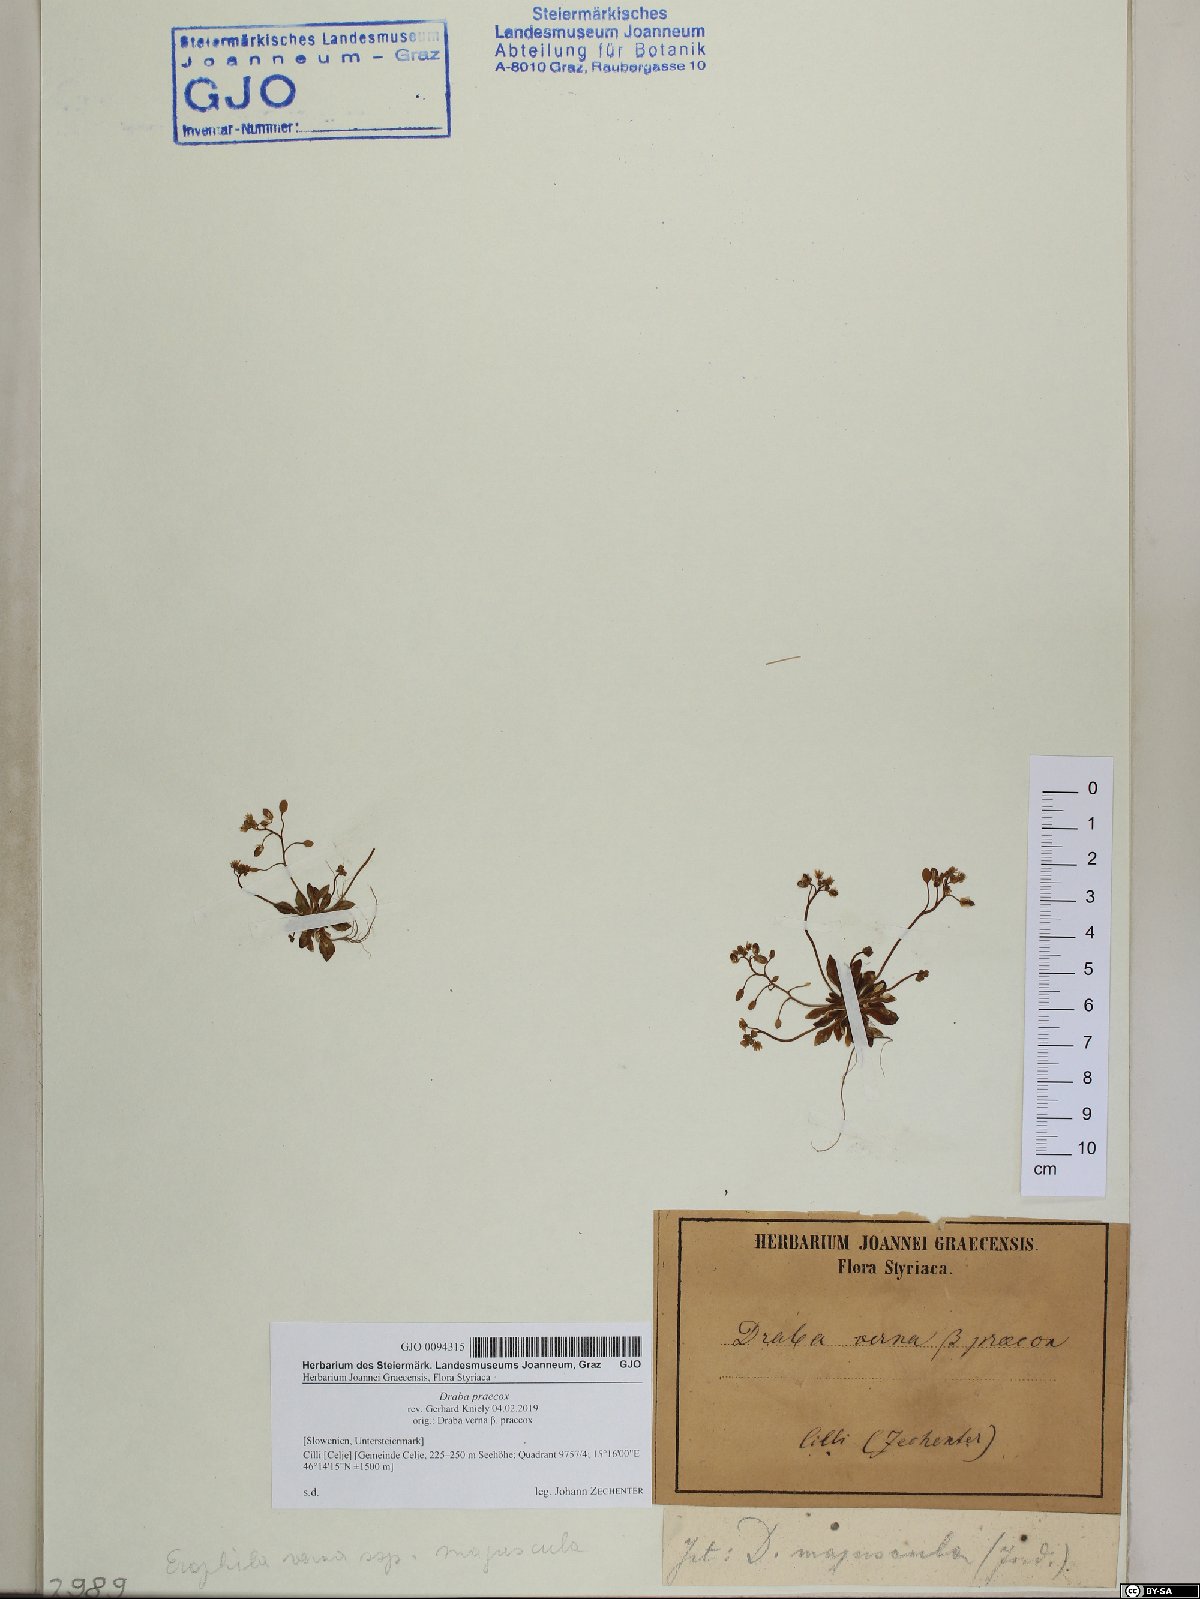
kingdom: Plantae
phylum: Tracheophyta
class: Magnoliopsida
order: Brassicales
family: Brassicaceae
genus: Draba
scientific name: Draba verna
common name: Spring draba
